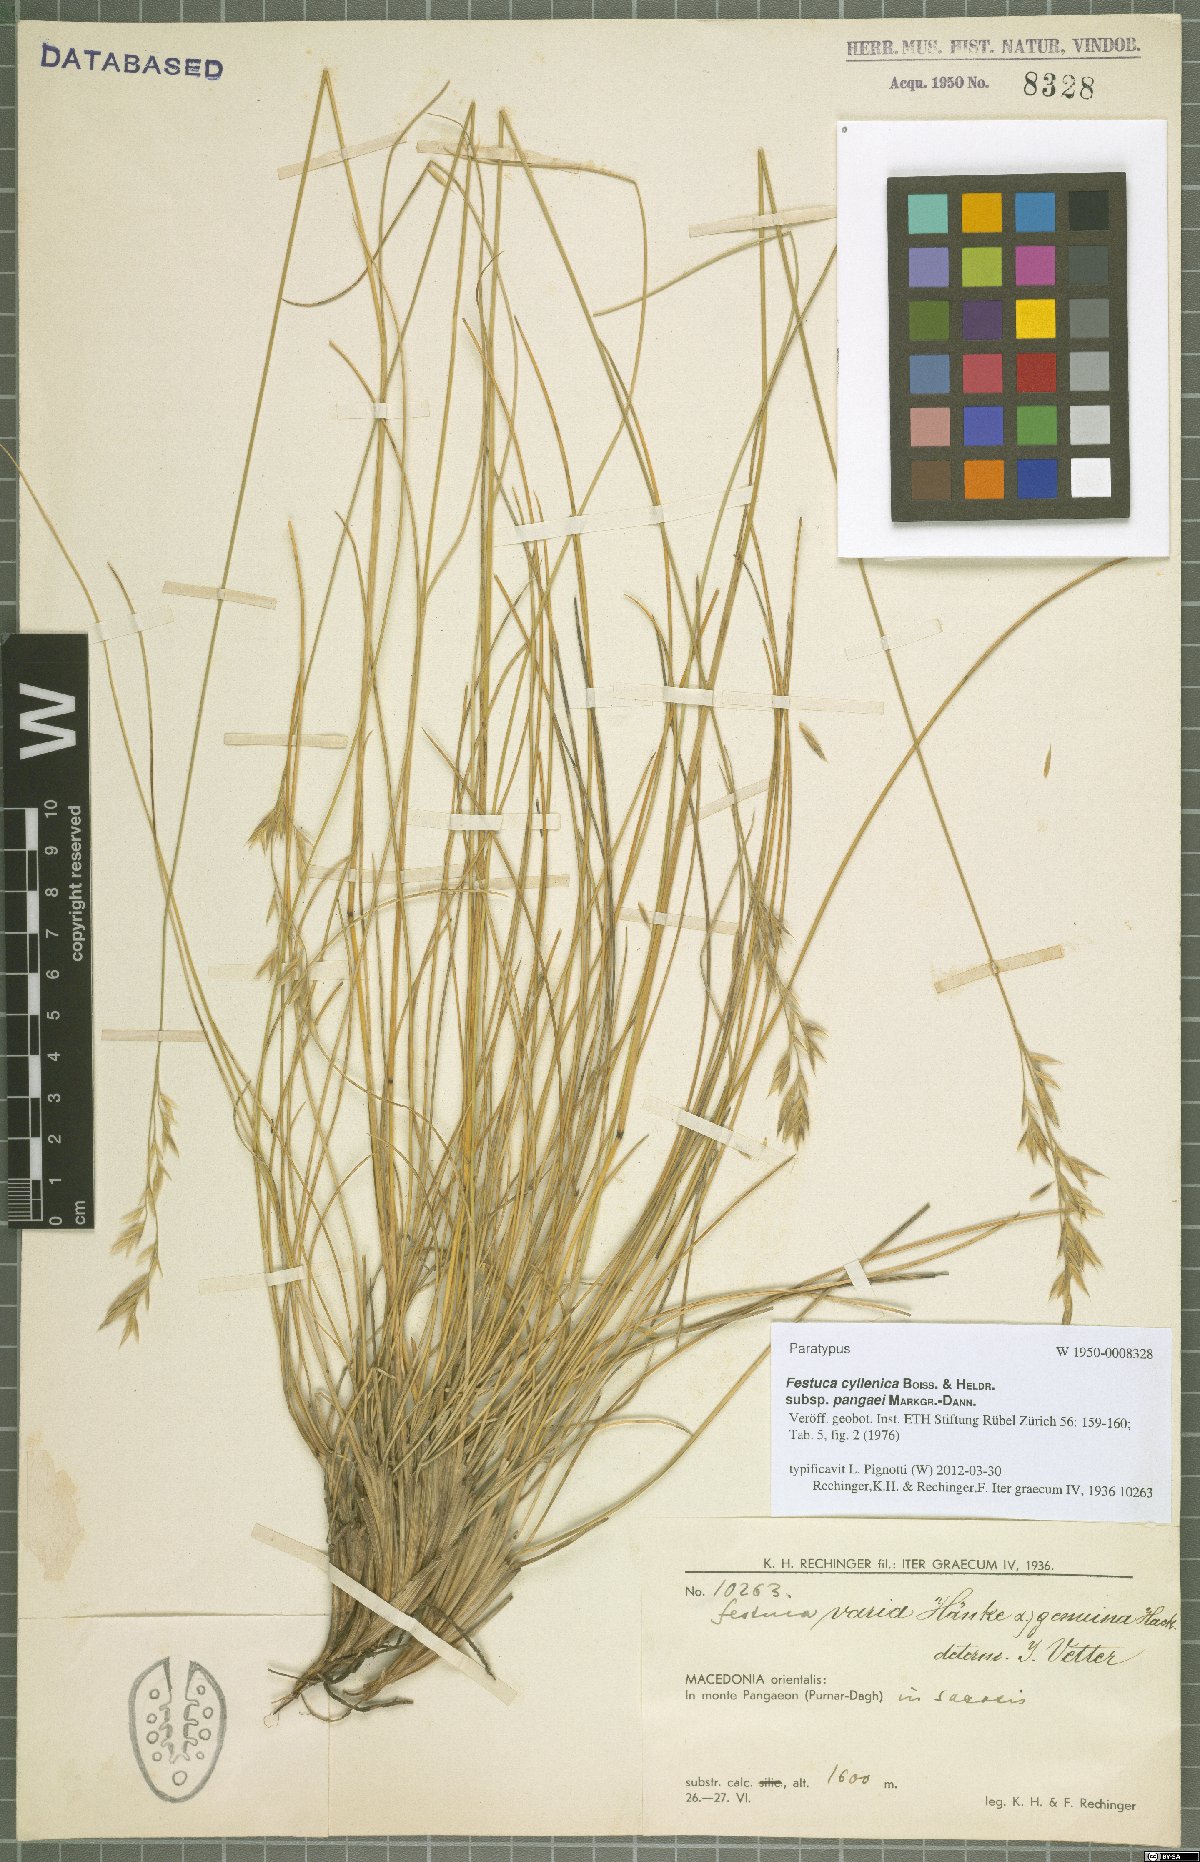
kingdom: Plantae
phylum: Tracheophyta
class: Liliopsida
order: Poales
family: Poaceae
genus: Festuca
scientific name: Festuca cyllenica
